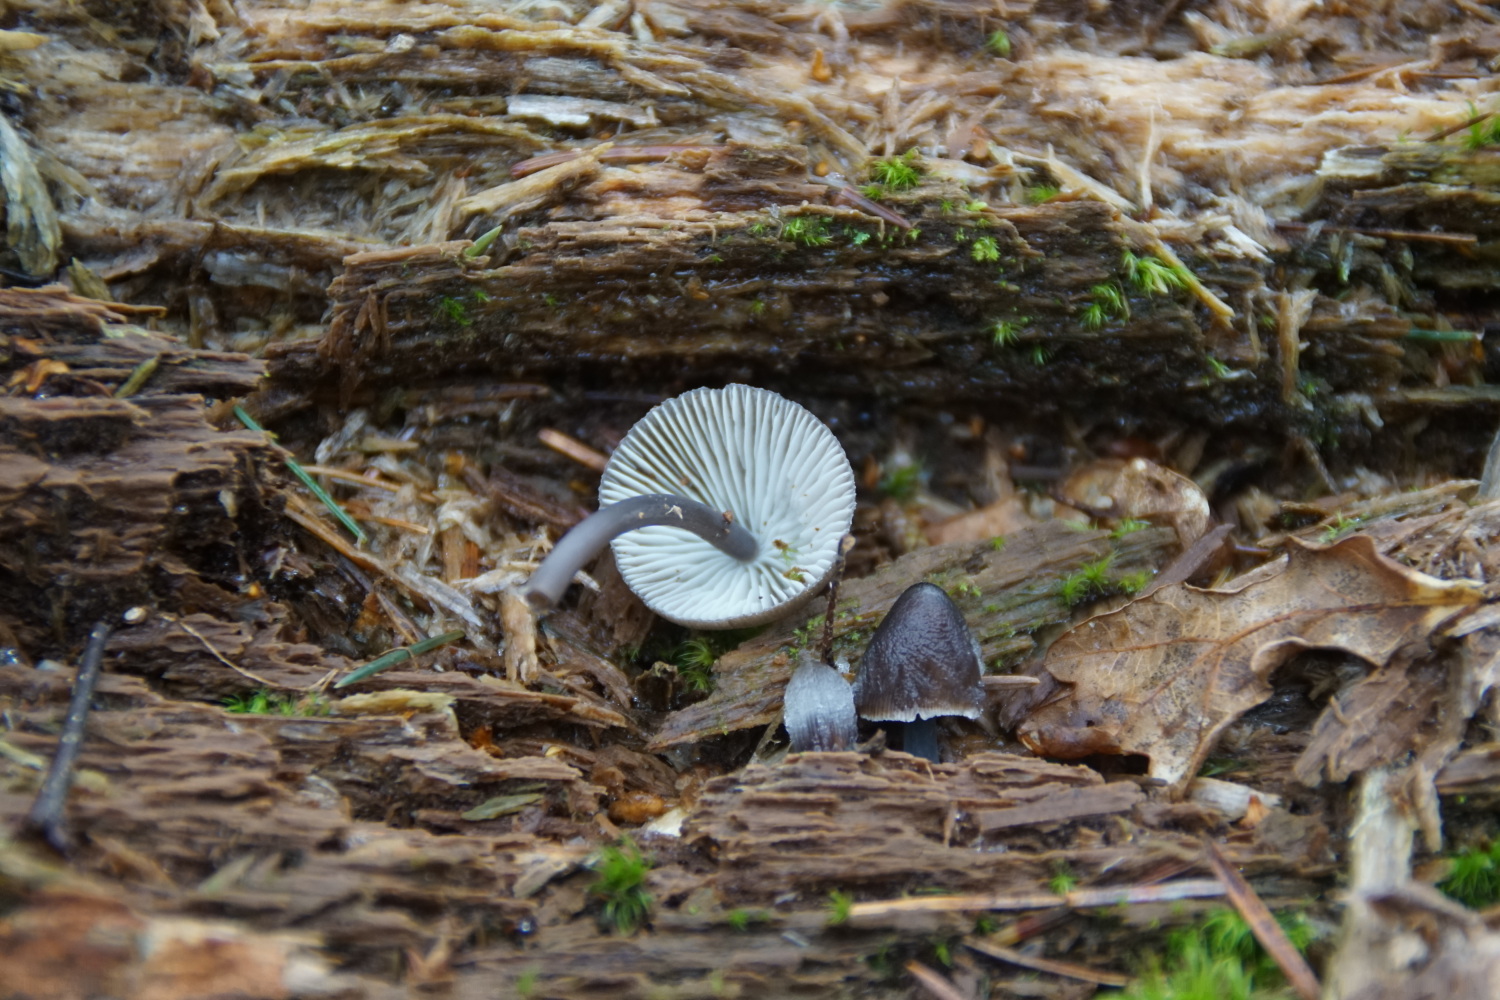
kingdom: Fungi
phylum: Basidiomycota
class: Agaricomycetes
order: Agaricales
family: Mycenaceae
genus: Mycena
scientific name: Mycena silvae-nigrae
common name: tidlig huesvamp
